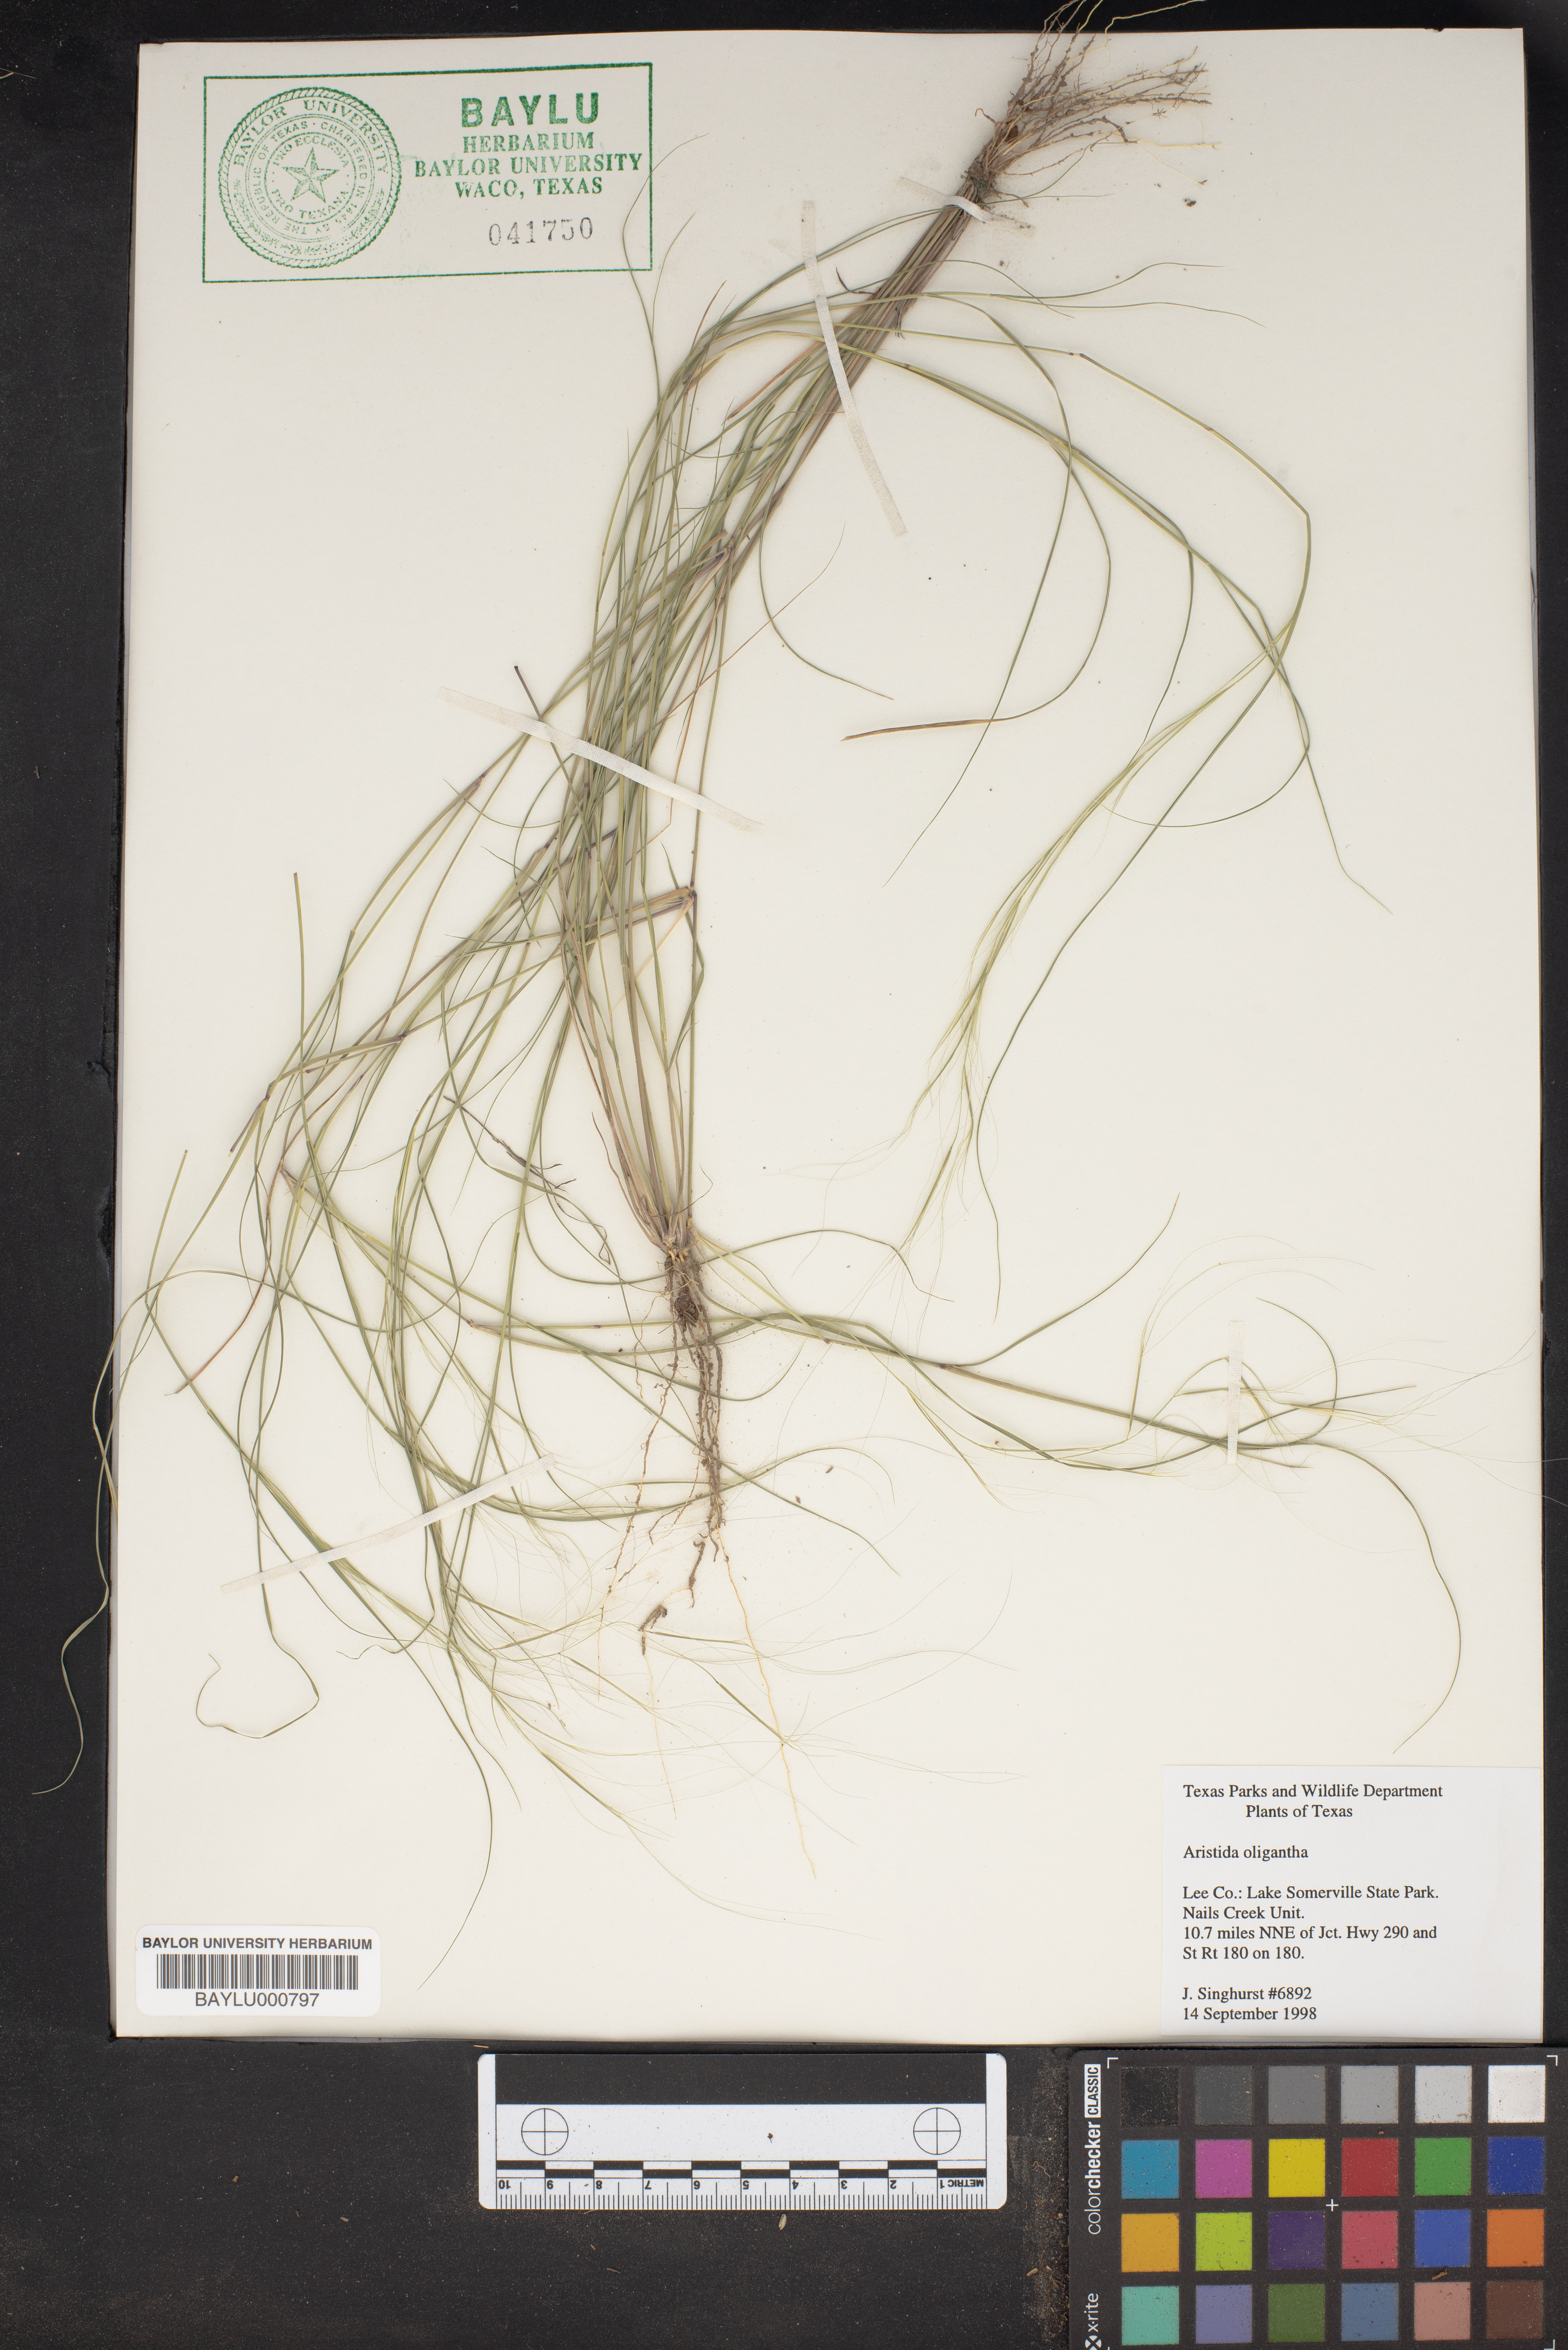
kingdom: Plantae
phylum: Tracheophyta
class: Liliopsida
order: Poales
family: Poaceae
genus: Aristida
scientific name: Aristida oligantha
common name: Few-flowered aristida
